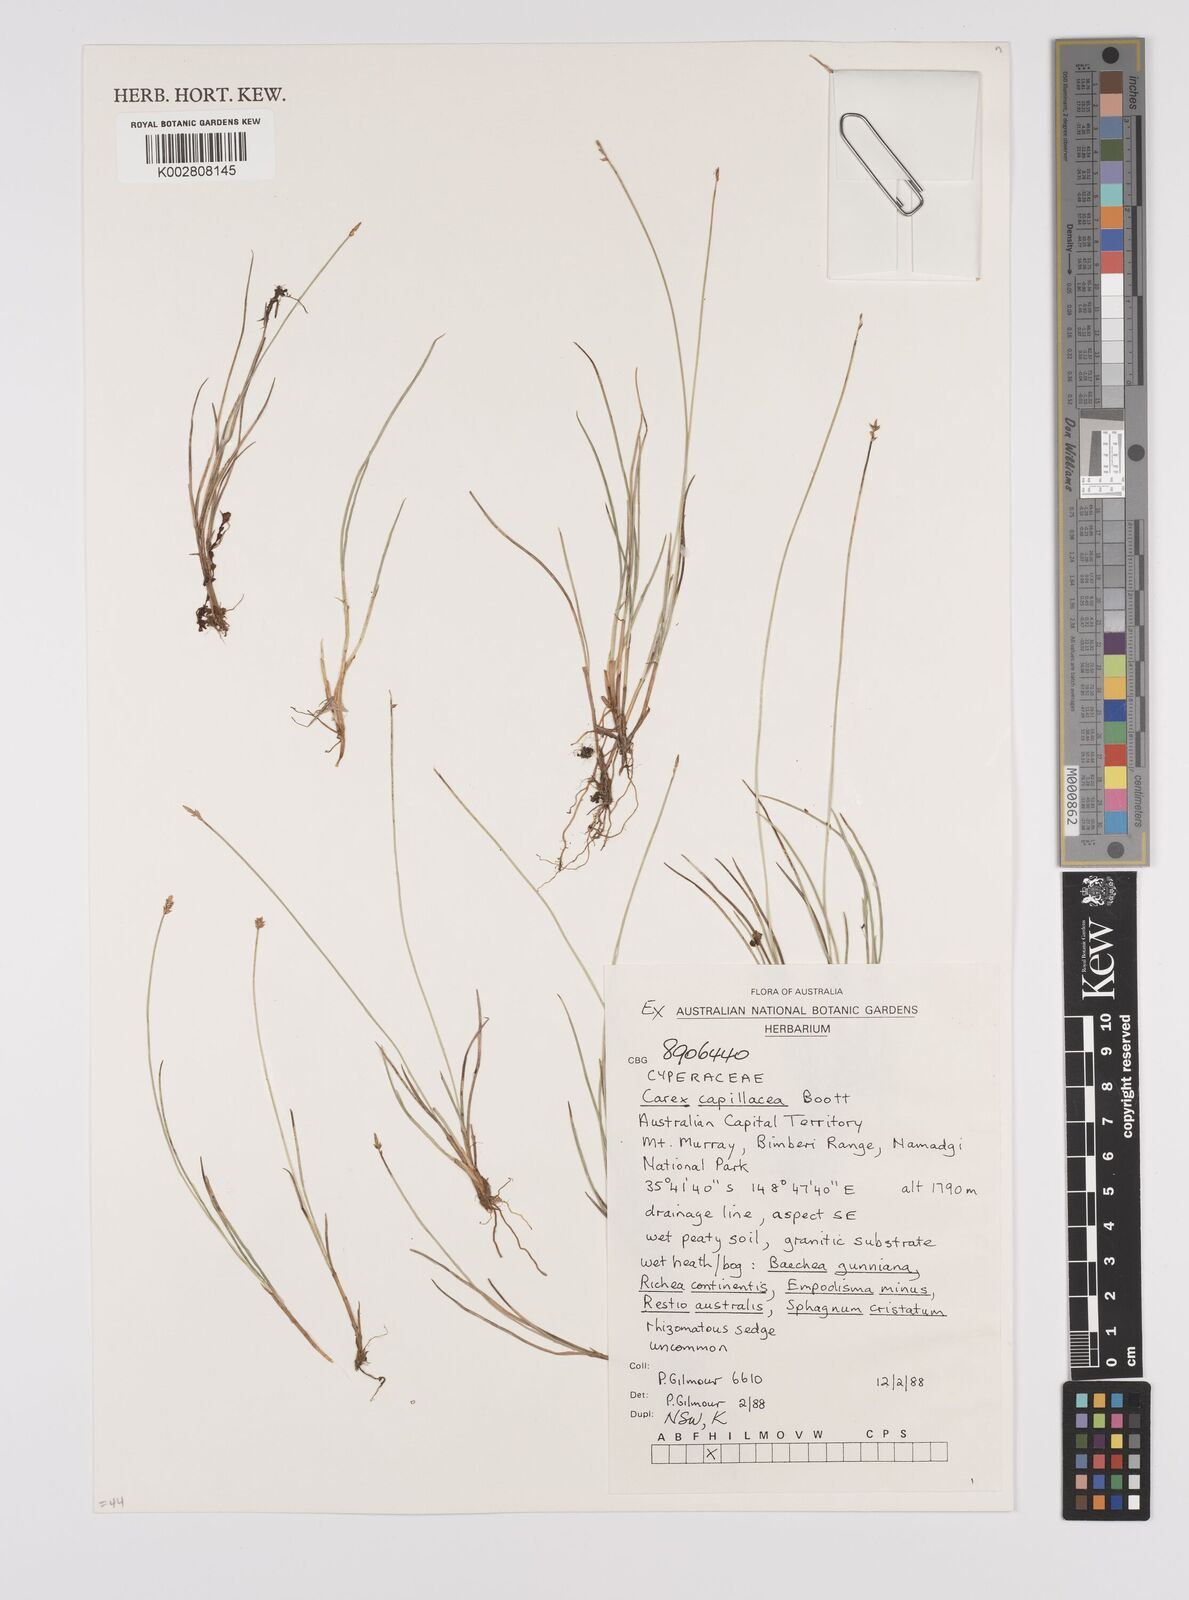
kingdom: Plantae
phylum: Tracheophyta
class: Liliopsida
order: Poales
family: Cyperaceae
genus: Carex
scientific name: Carex acicularis
